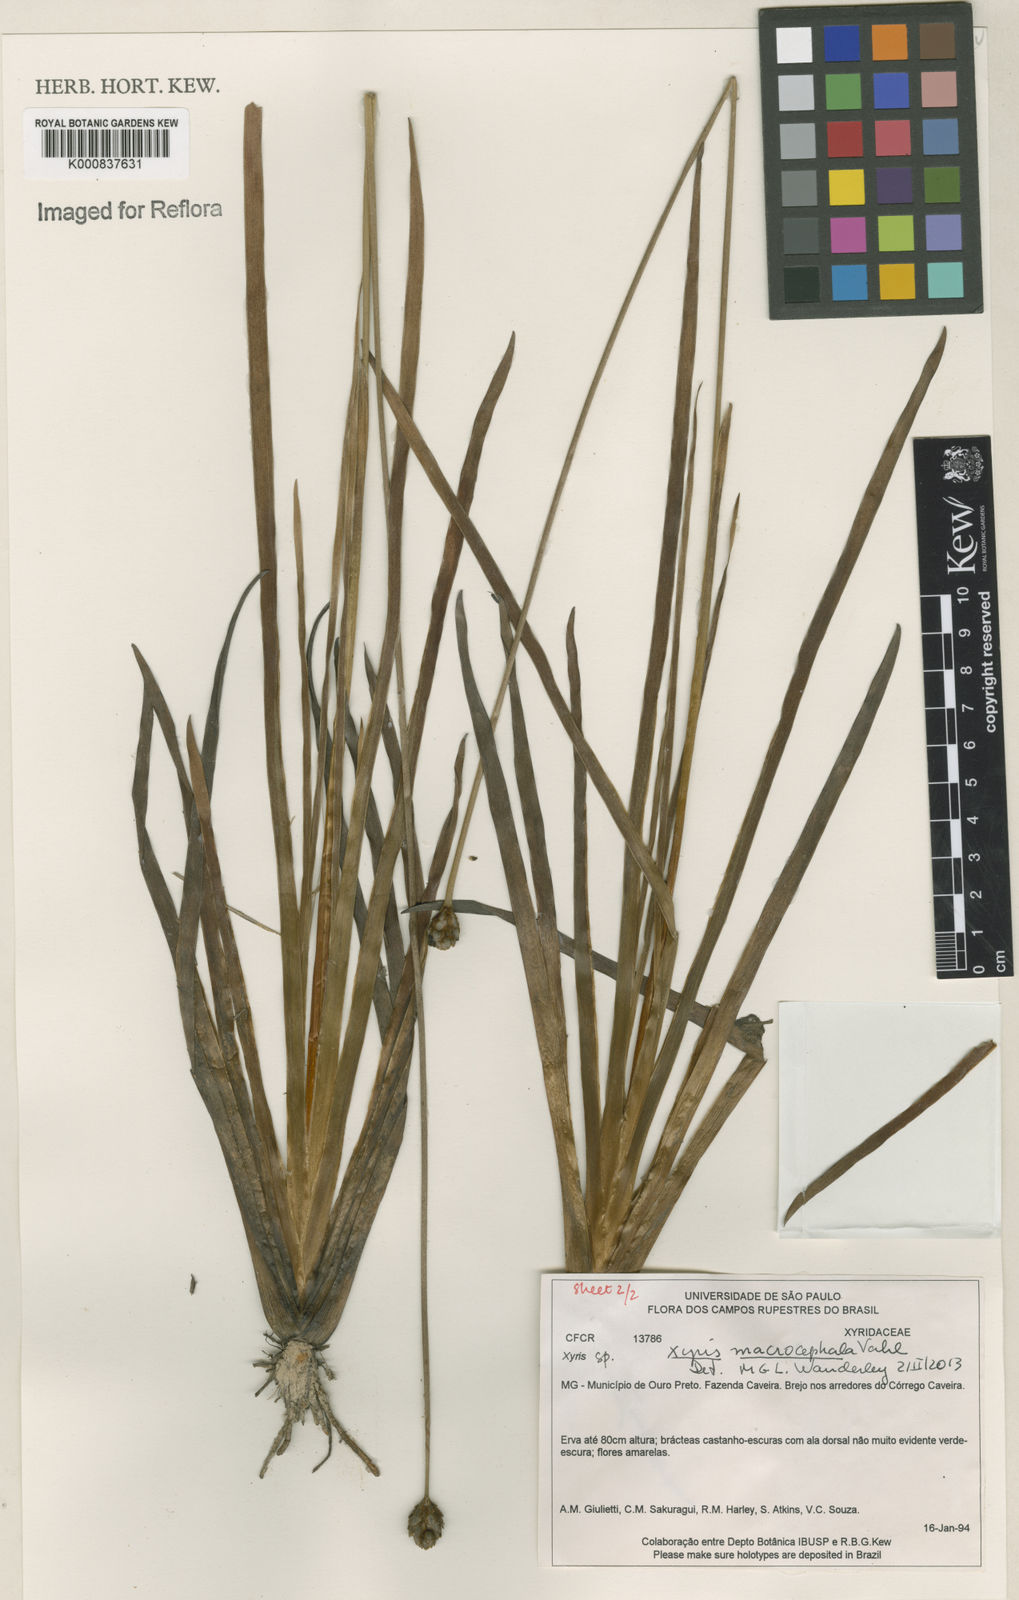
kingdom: Plantae
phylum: Tracheophyta
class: Liliopsida
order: Poales
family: Xyridaceae
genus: Xyris
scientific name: Xyris jupicai
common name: Richard's yelloweyed grass
